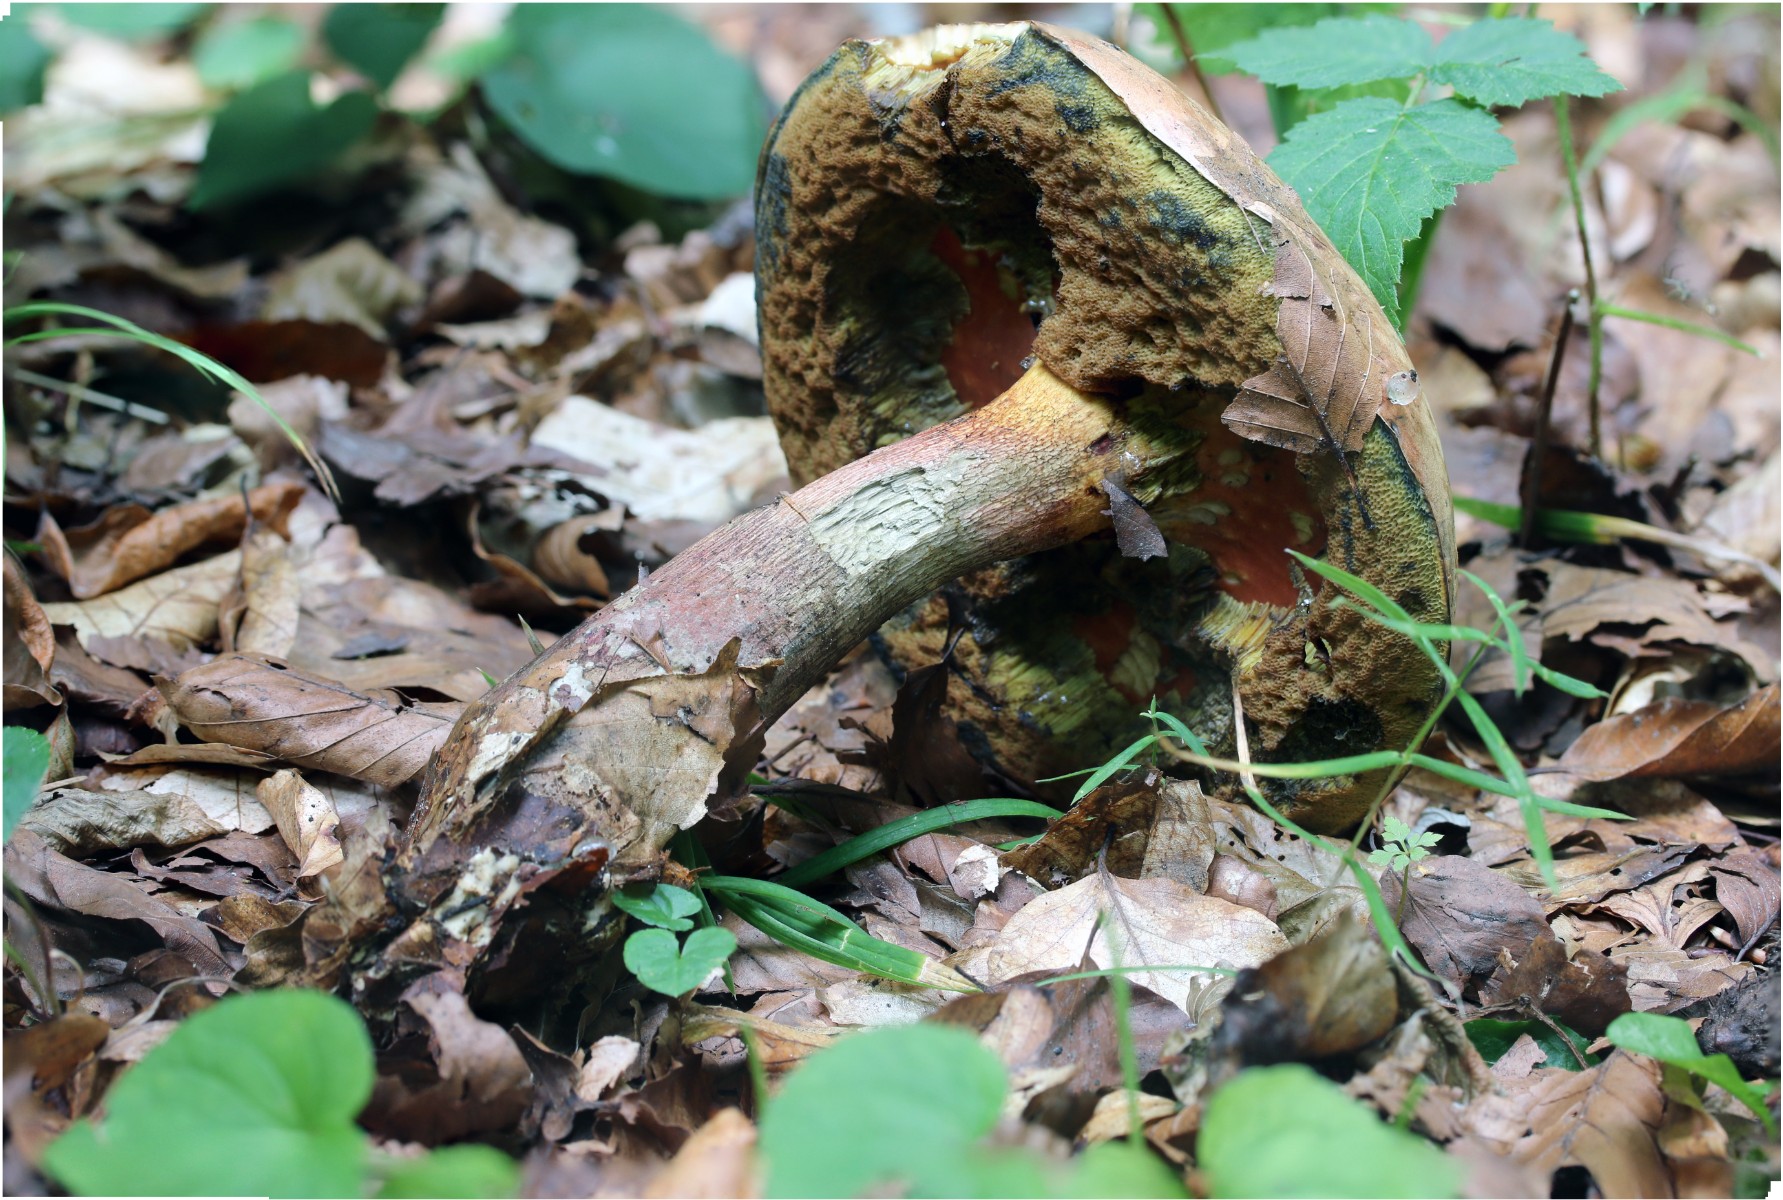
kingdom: Fungi
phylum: Basidiomycota
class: Agaricomycetes
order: Boletales
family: Boletaceae
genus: Suillellus
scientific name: Suillellus luridus
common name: netstokket indigorørhat
